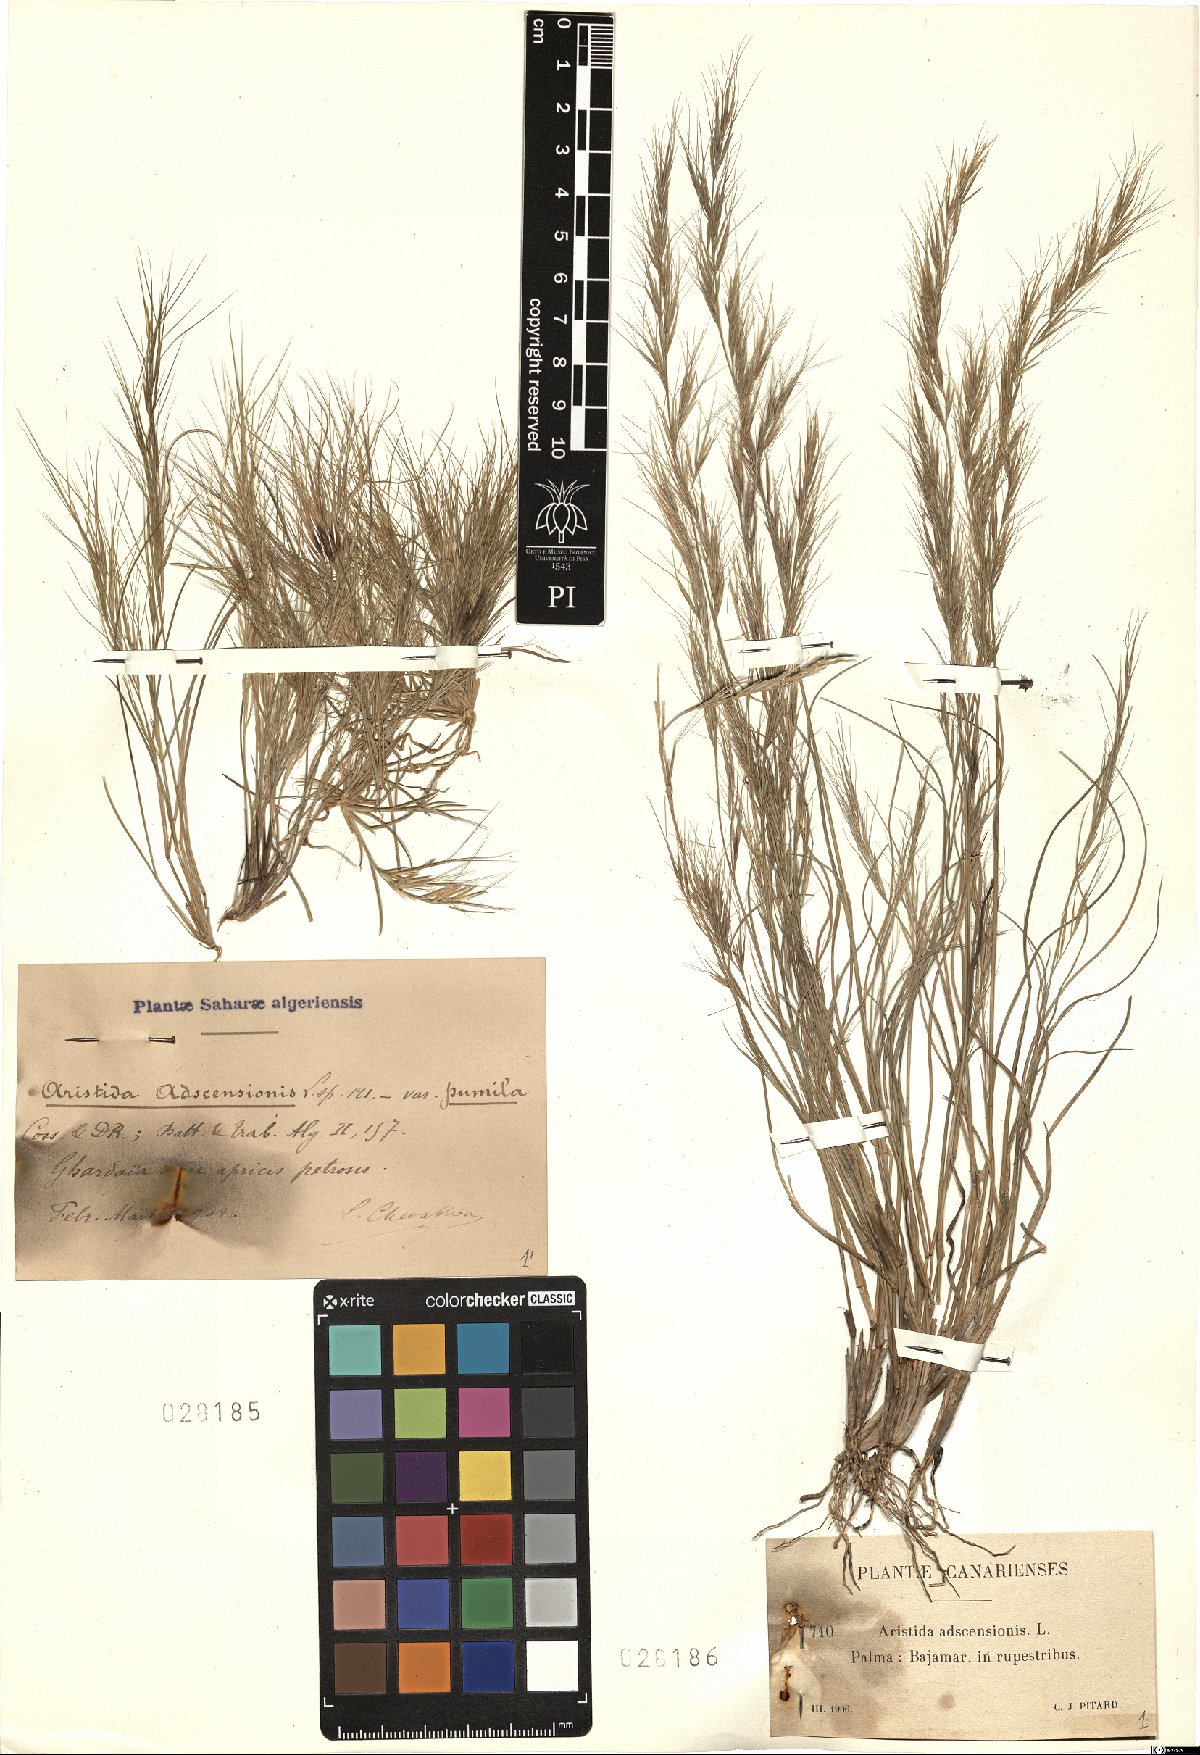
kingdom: Plantae
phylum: Tracheophyta
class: Liliopsida
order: Poales
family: Poaceae
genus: Aristida
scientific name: Aristida adscensionis
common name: Sixweeks threeawn
